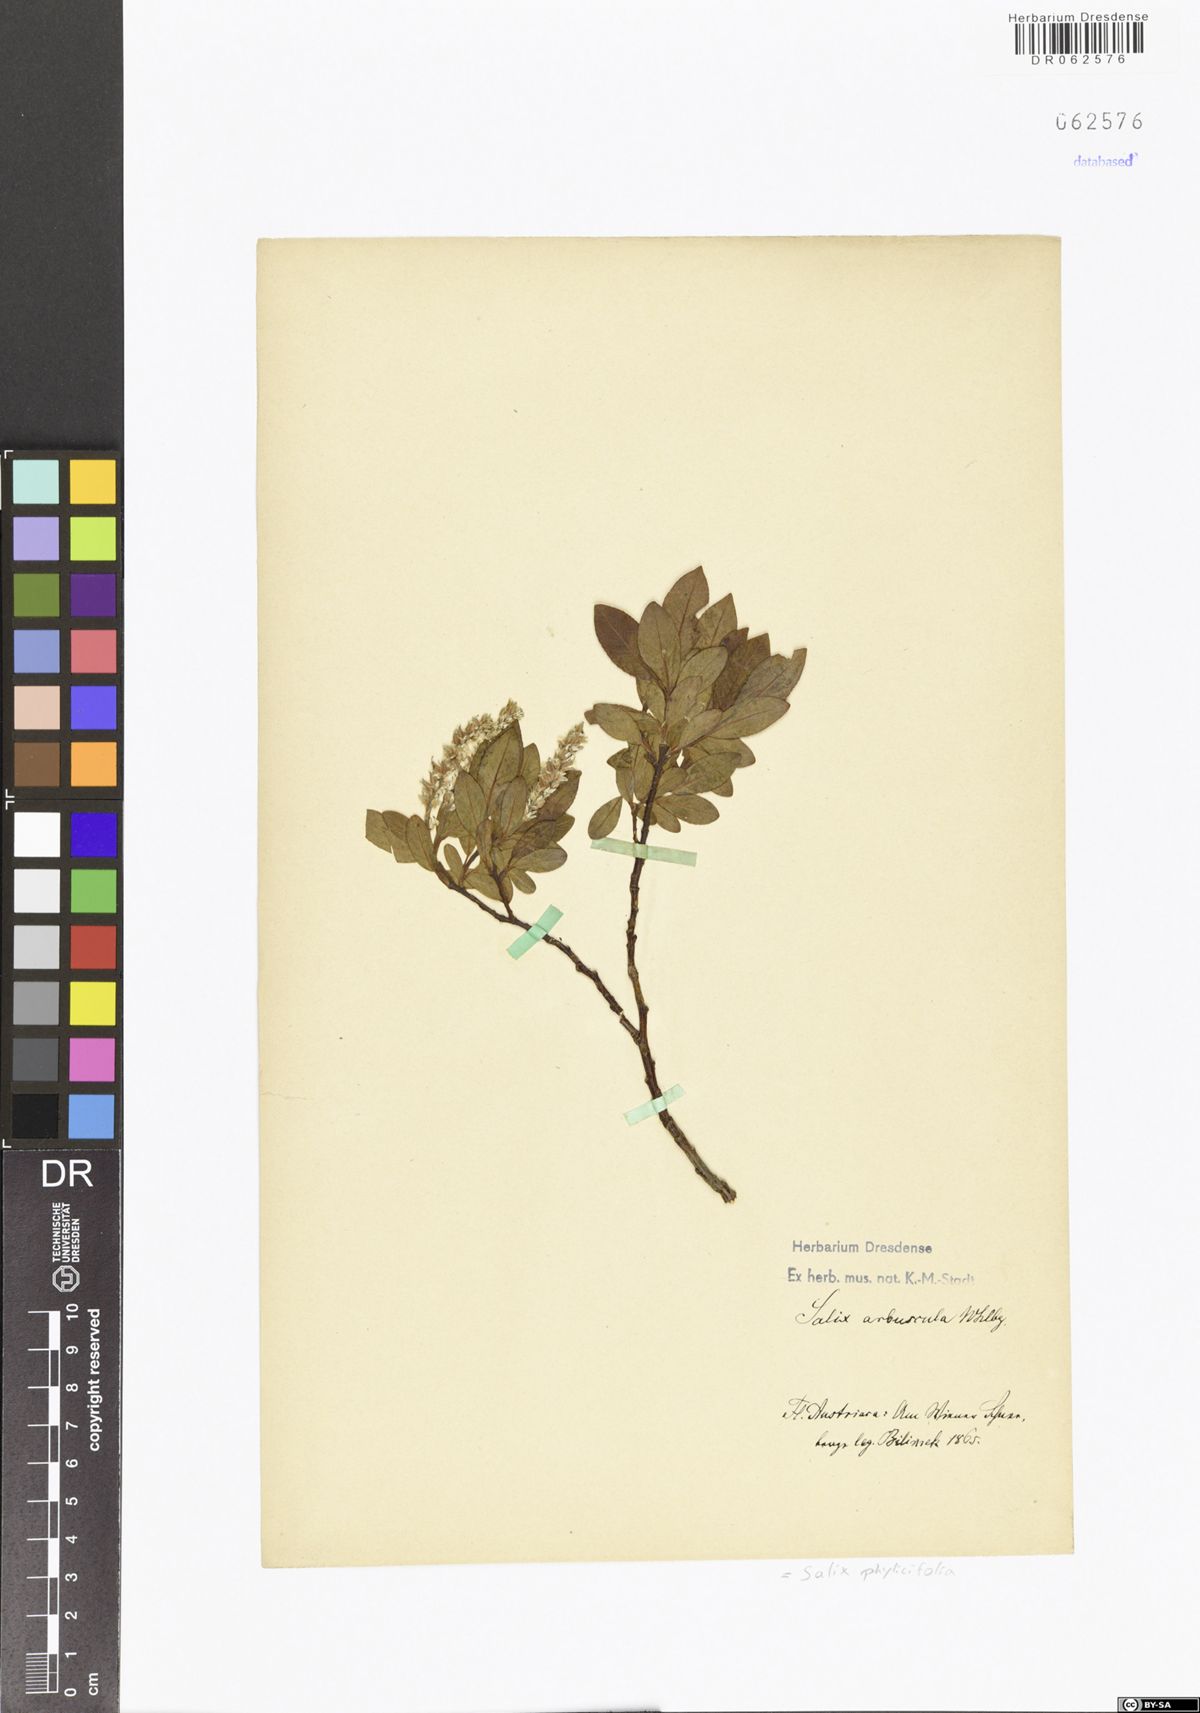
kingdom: Plantae
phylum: Tracheophyta
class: Magnoliopsida
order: Malpighiales
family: Salicaceae
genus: Salix
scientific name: Salix phylicifolia
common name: Tea-leaved willow
